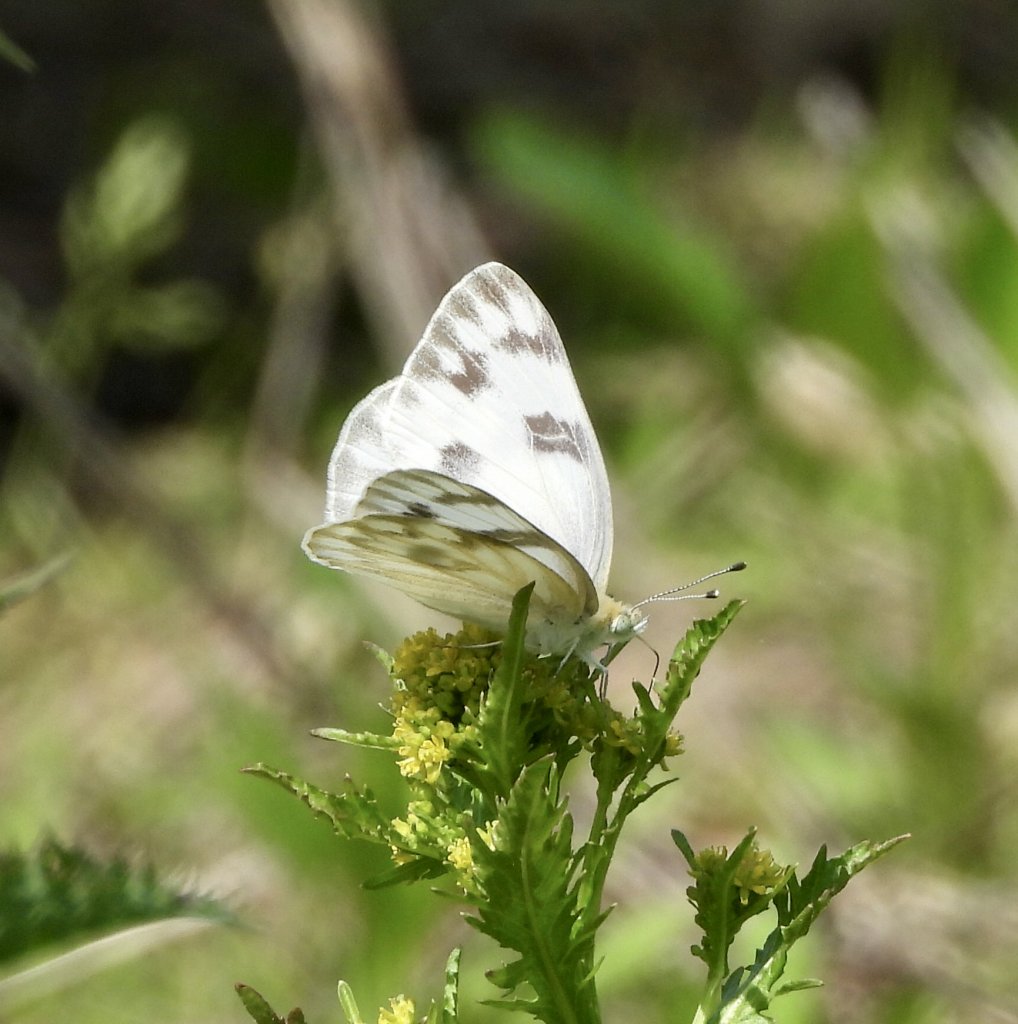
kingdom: Animalia
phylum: Arthropoda
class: Insecta
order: Lepidoptera
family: Pieridae
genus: Pontia
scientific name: Pontia protodice
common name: Checkered White
